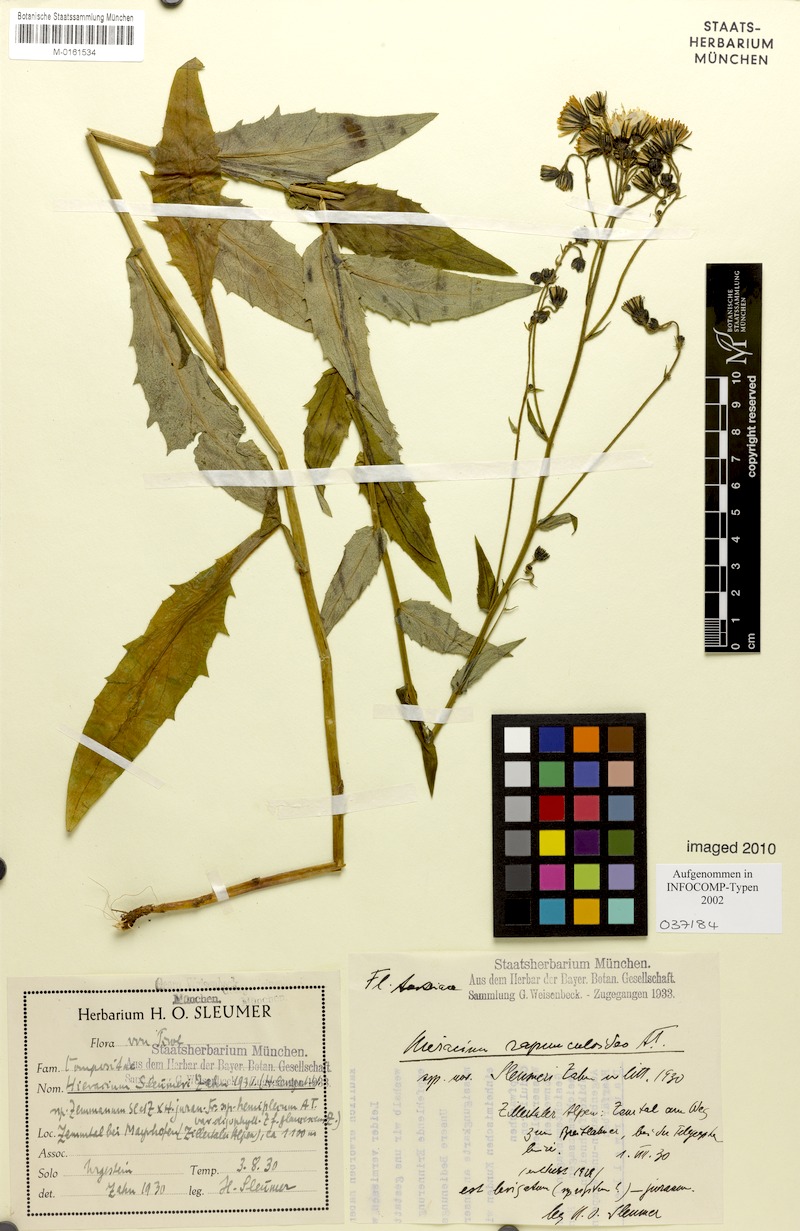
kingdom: Plantae
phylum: Tracheophyta
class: Magnoliopsida
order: Asterales
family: Asteraceae
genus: Hieracium
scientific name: Hieracium laevigatum
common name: Smooth hawkweed
